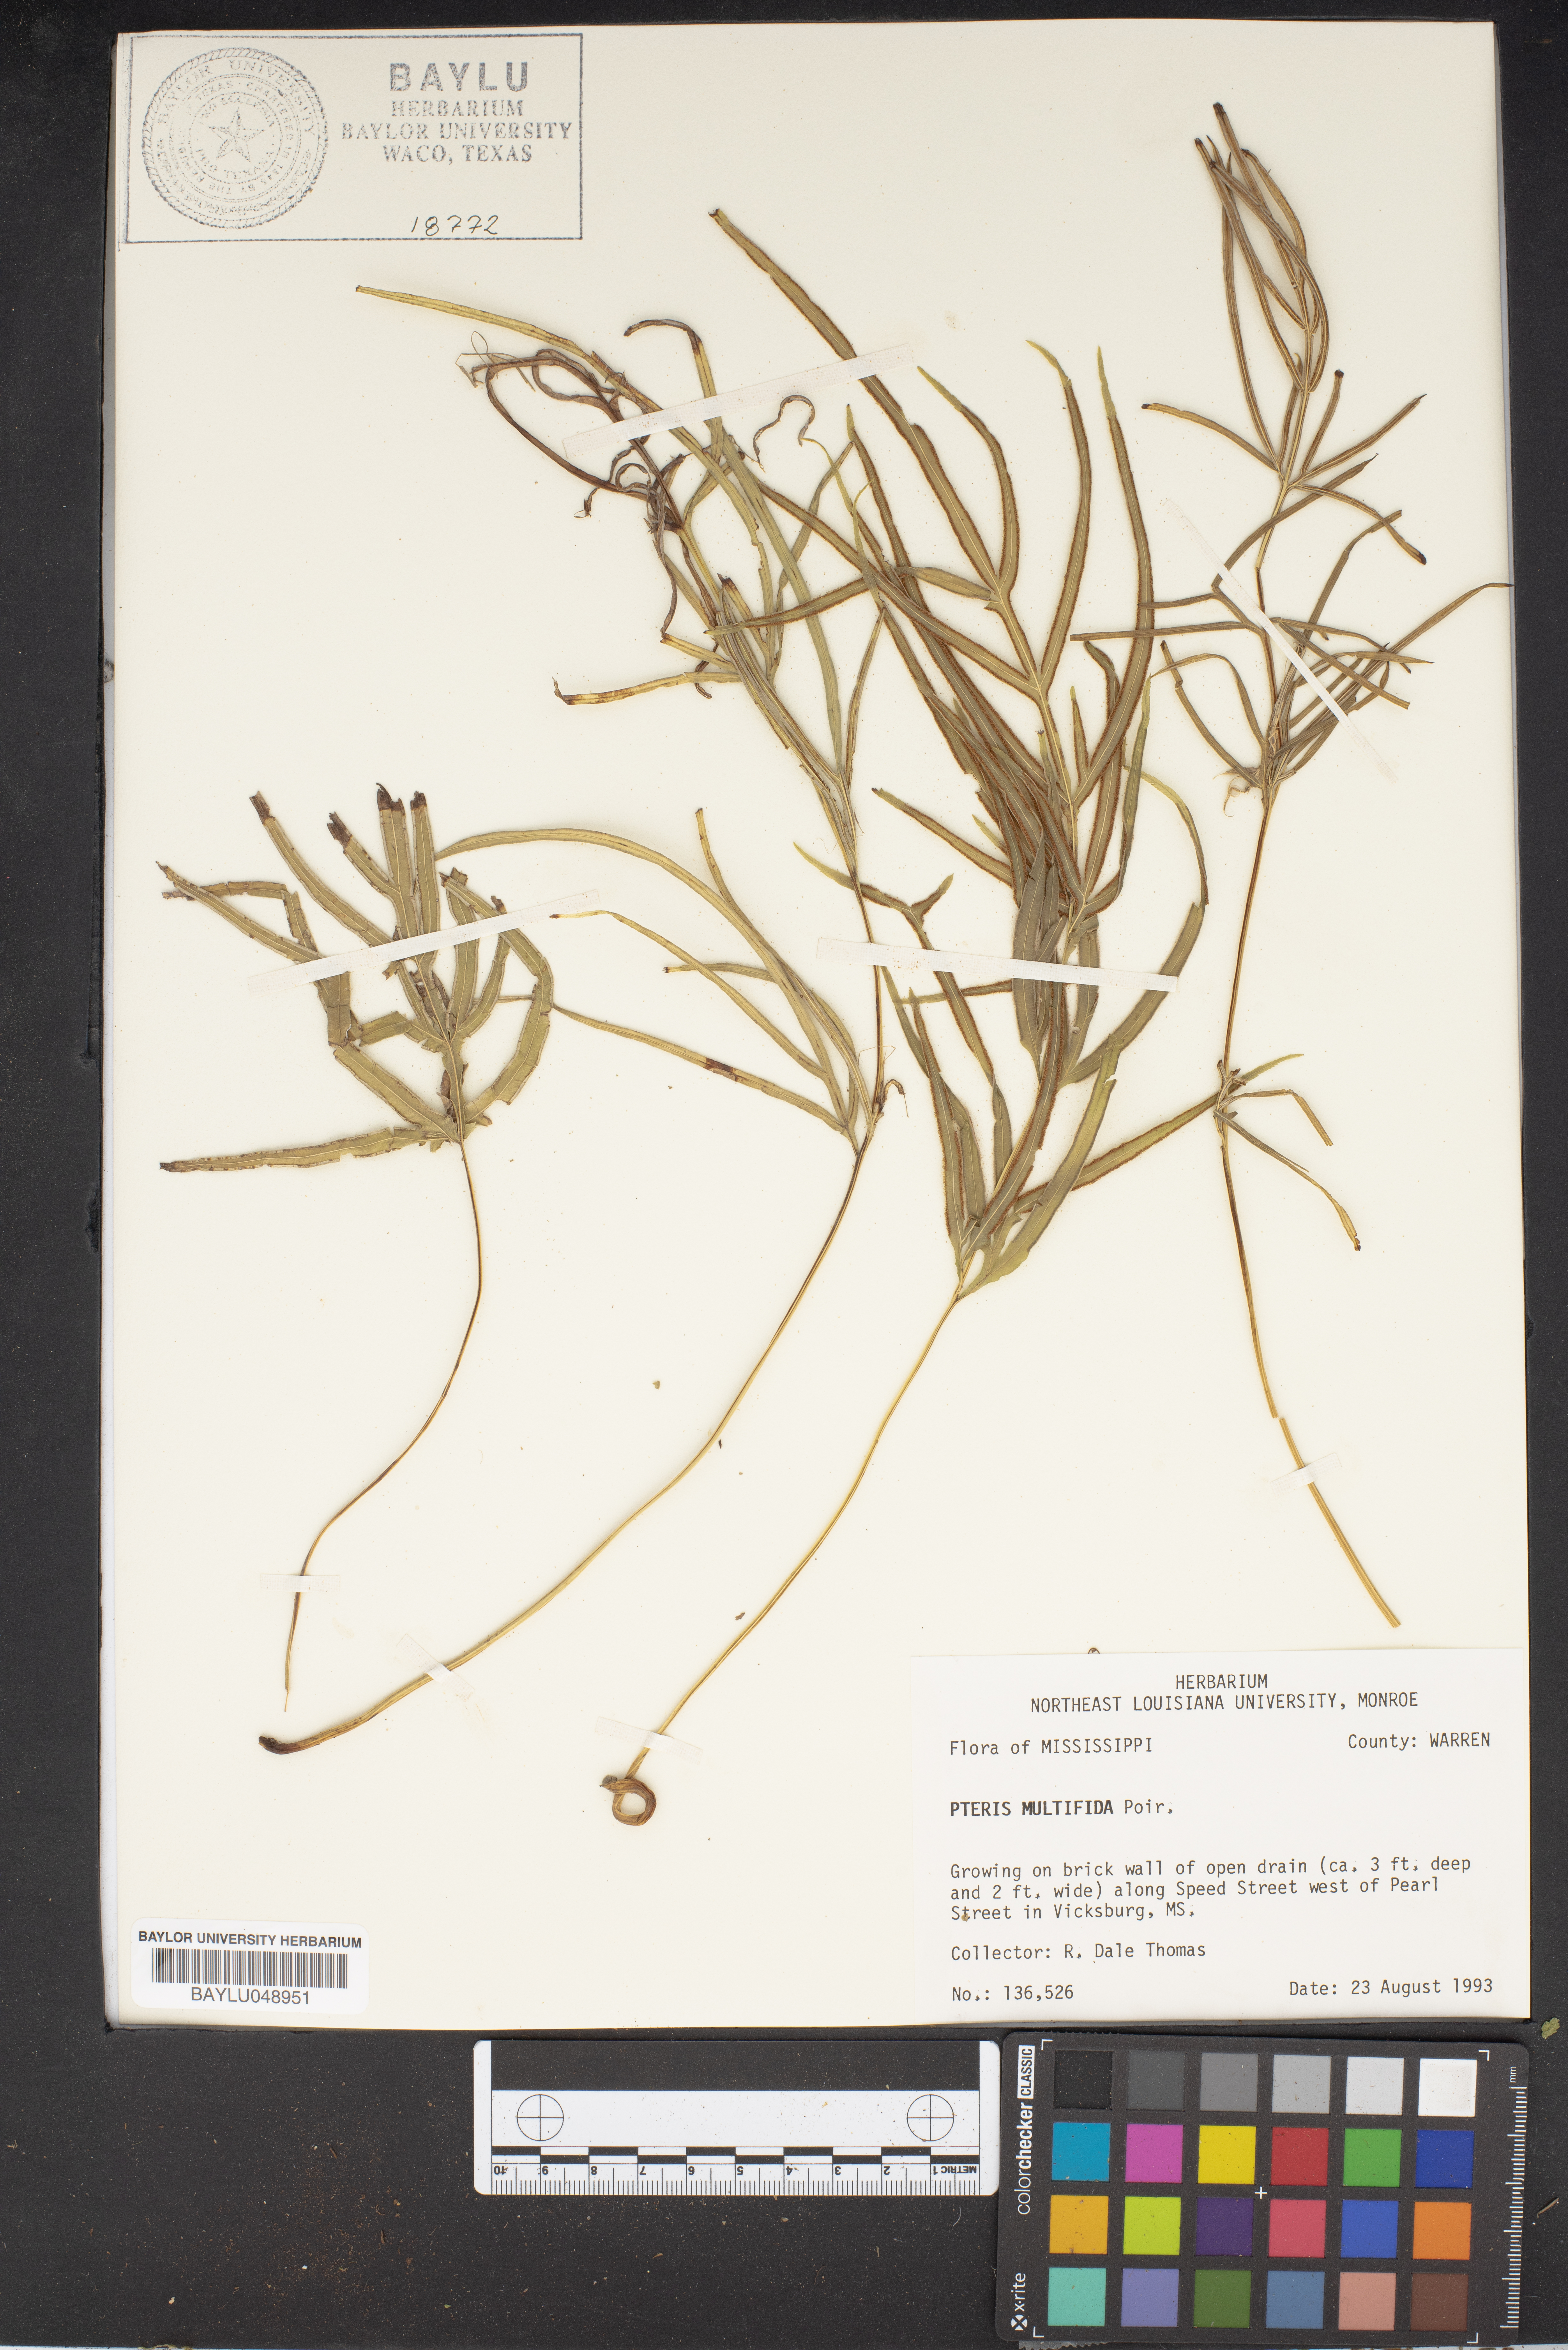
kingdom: Plantae
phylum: Tracheophyta
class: Polypodiopsida
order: Polypodiales
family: Pteridaceae
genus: Pteris
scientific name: Pteris multifida
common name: Spider brake
